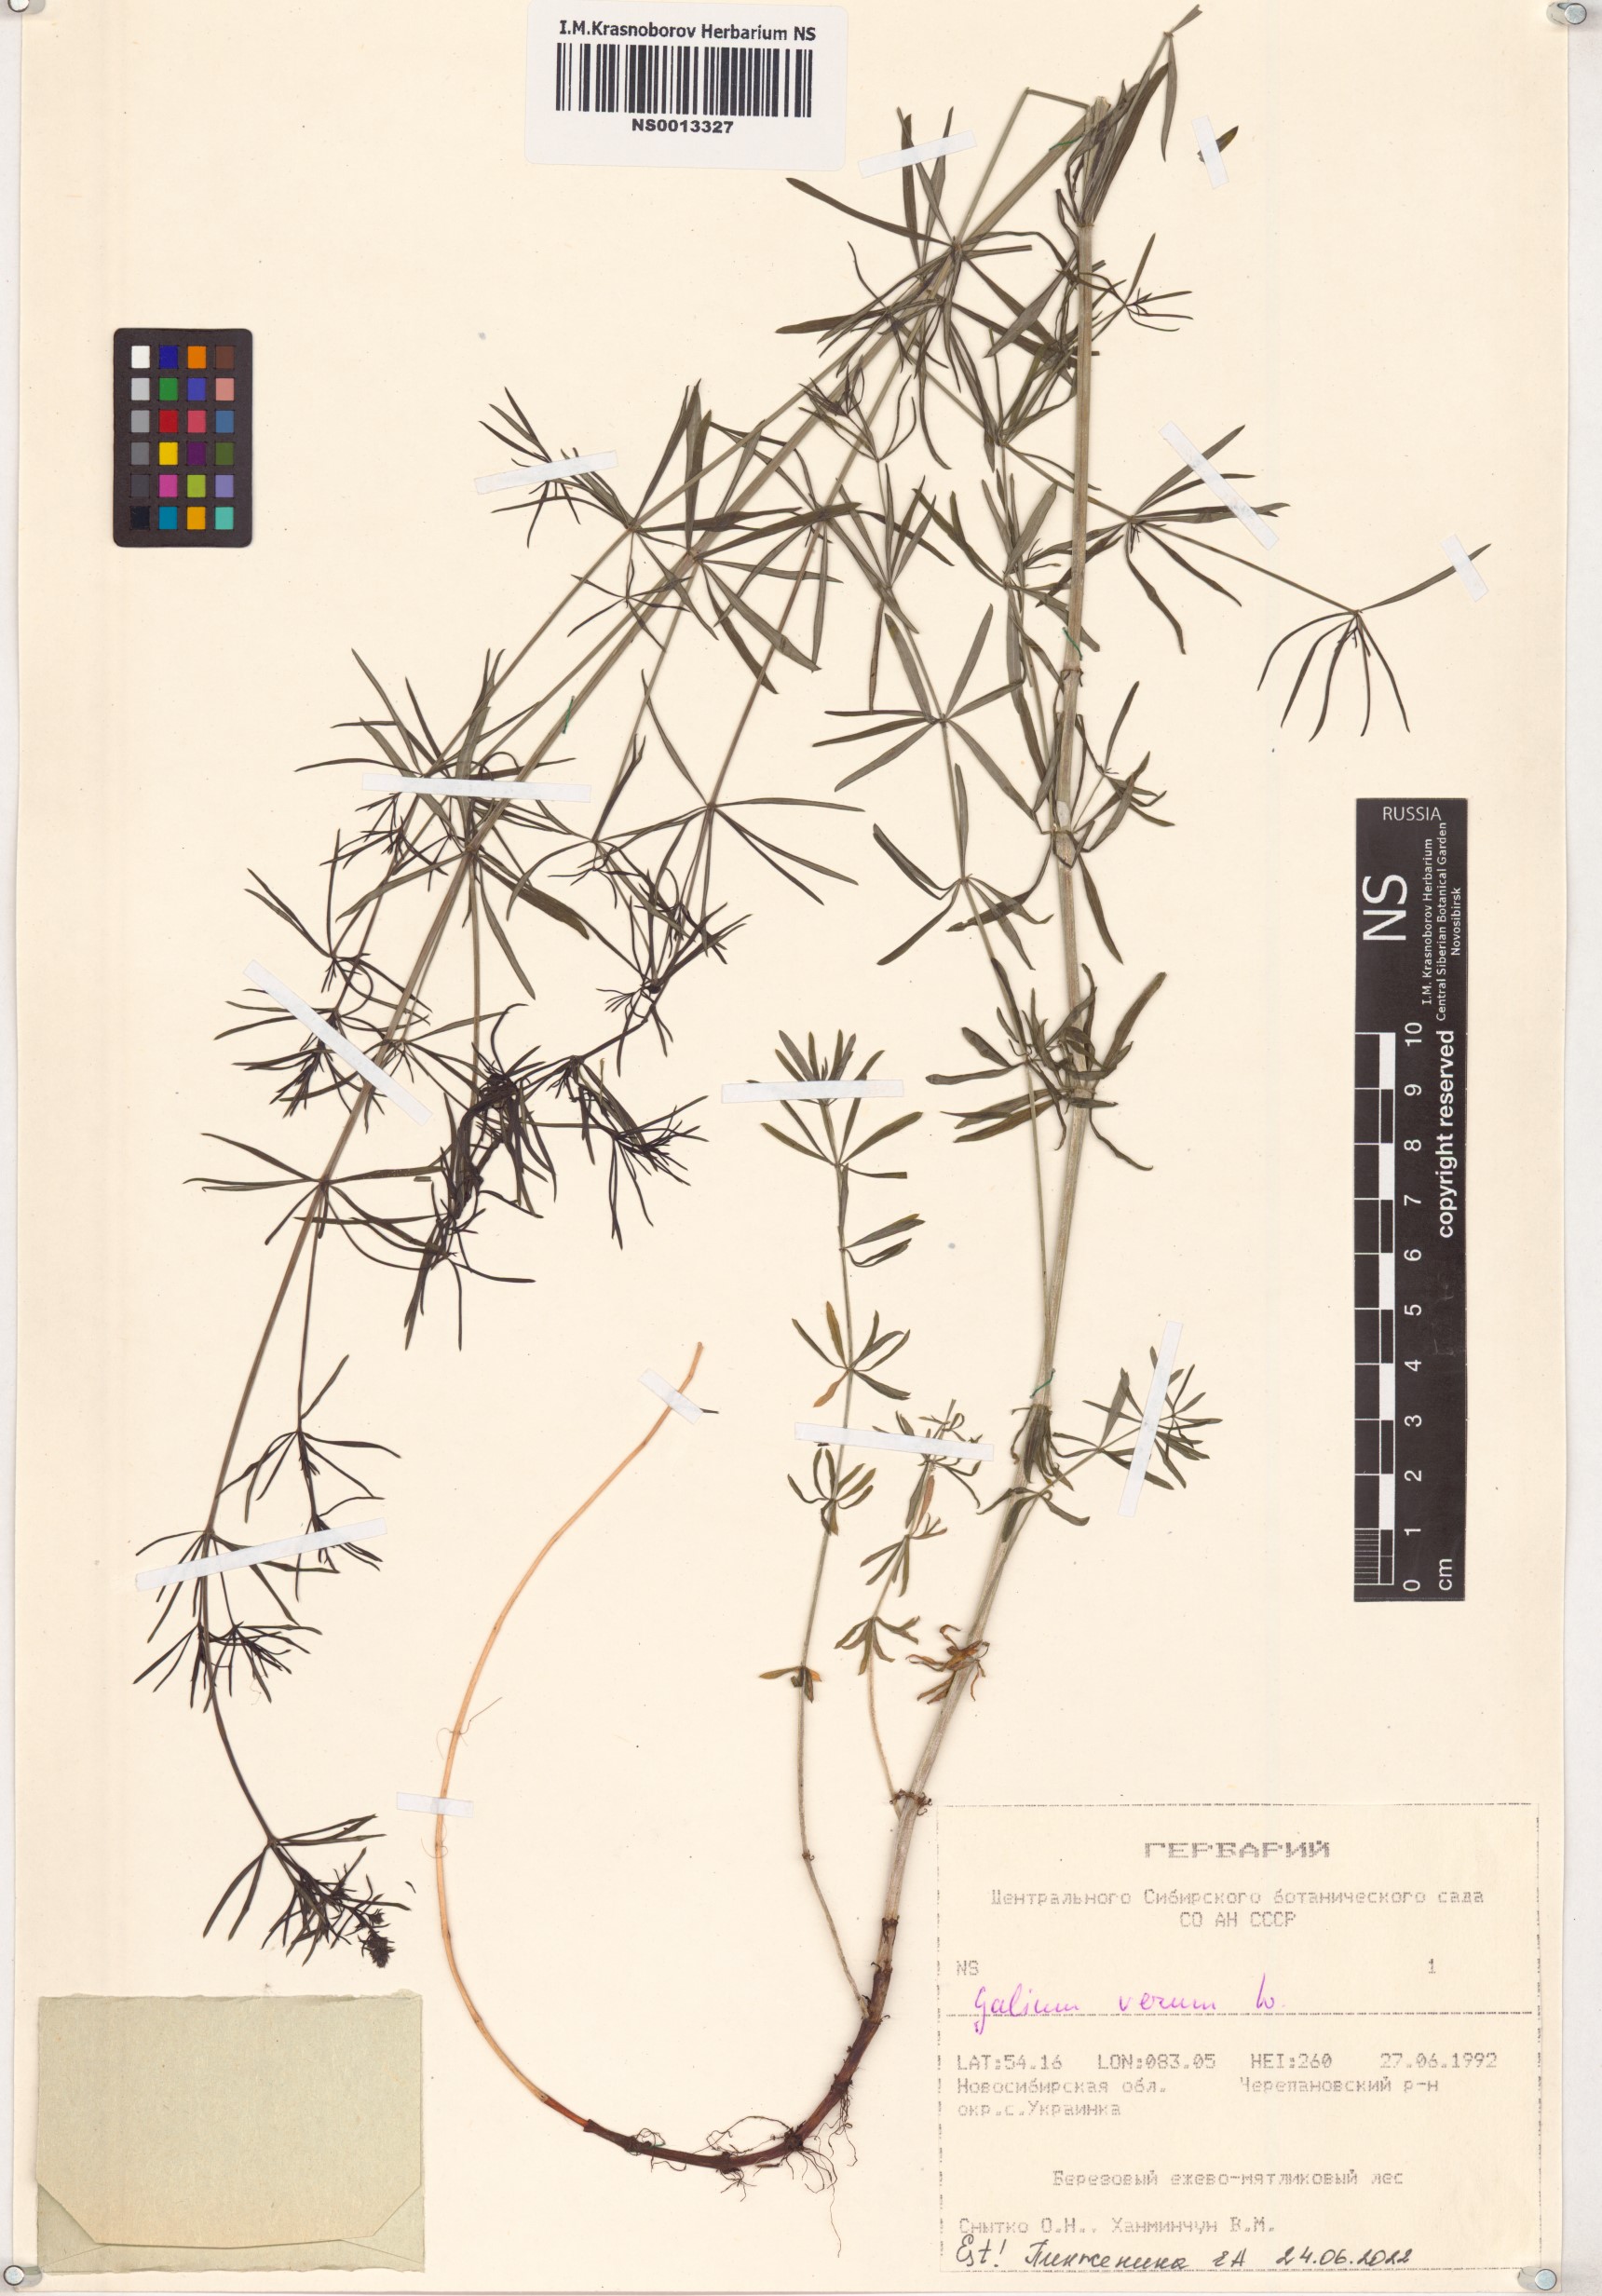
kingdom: Plantae
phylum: Tracheophyta
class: Magnoliopsida
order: Gentianales
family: Rubiaceae
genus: Galium
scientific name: Galium verum
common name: Lady's bedstraw
